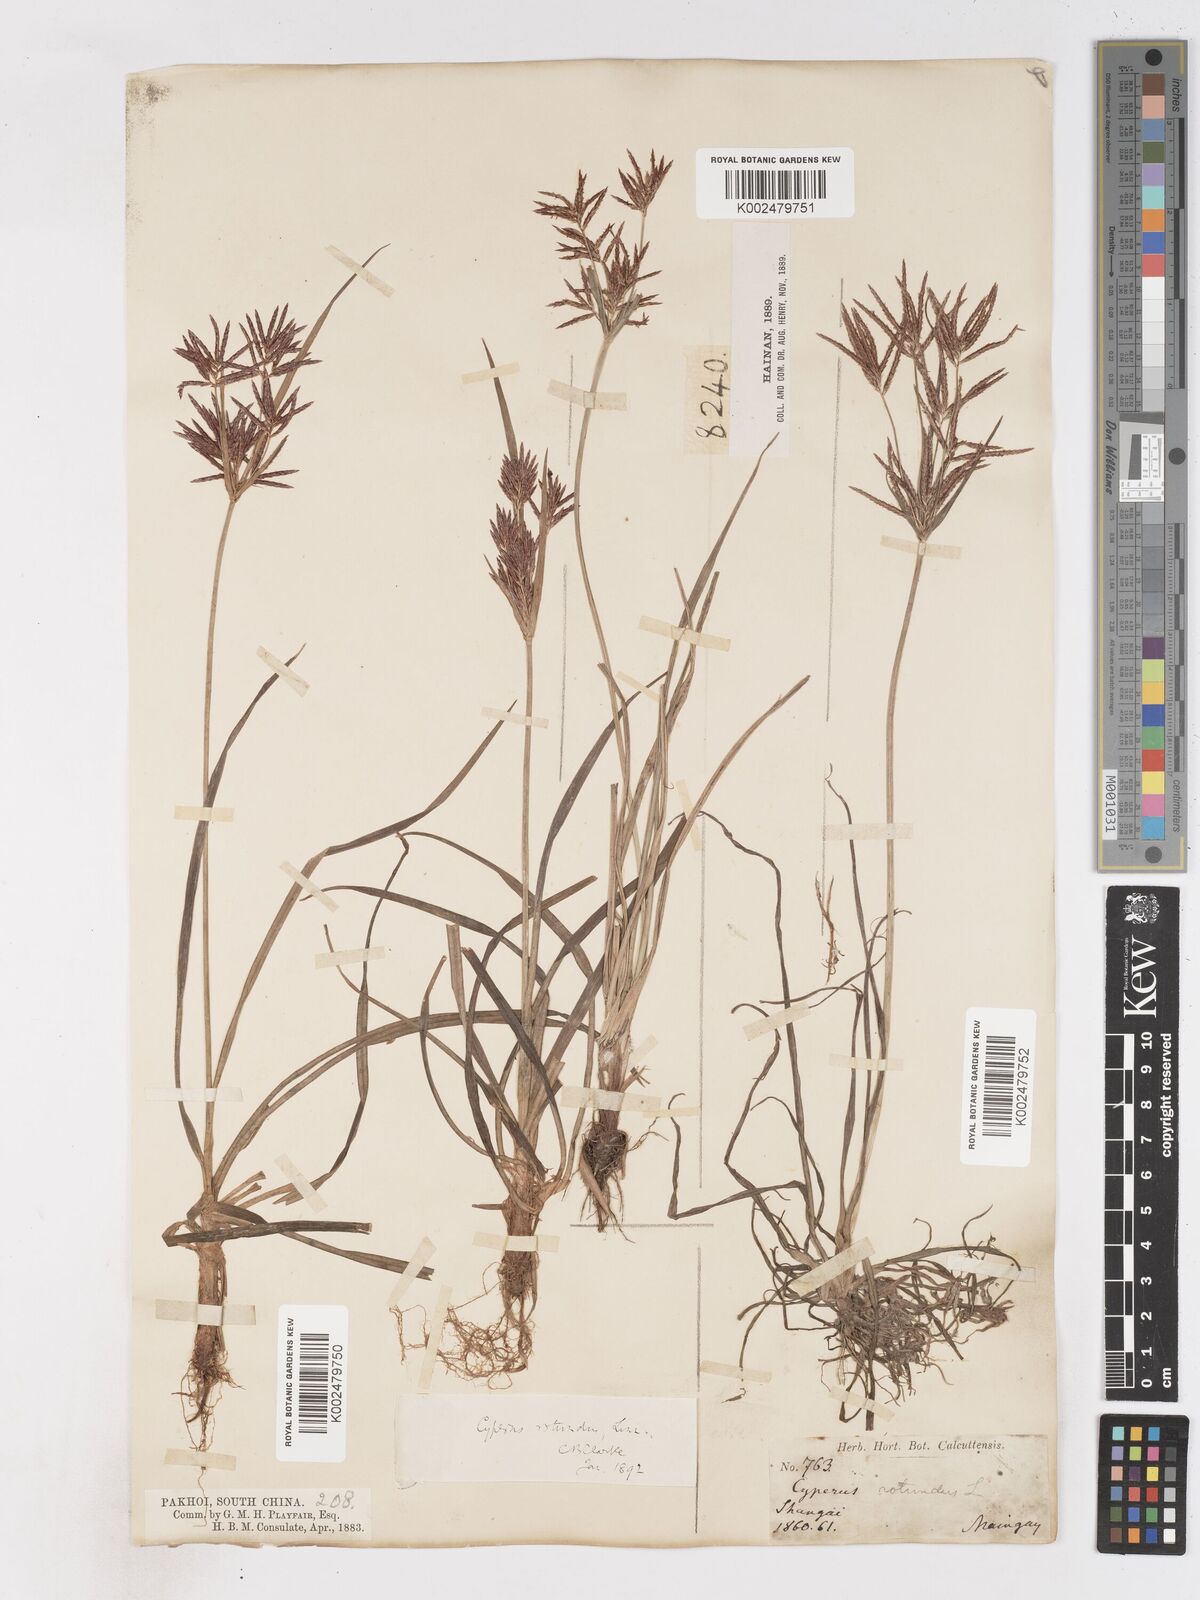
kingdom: Plantae
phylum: Tracheophyta
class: Liliopsida
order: Poales
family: Cyperaceae
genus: Cyperus
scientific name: Cyperus rotundus
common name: Nutgrass
